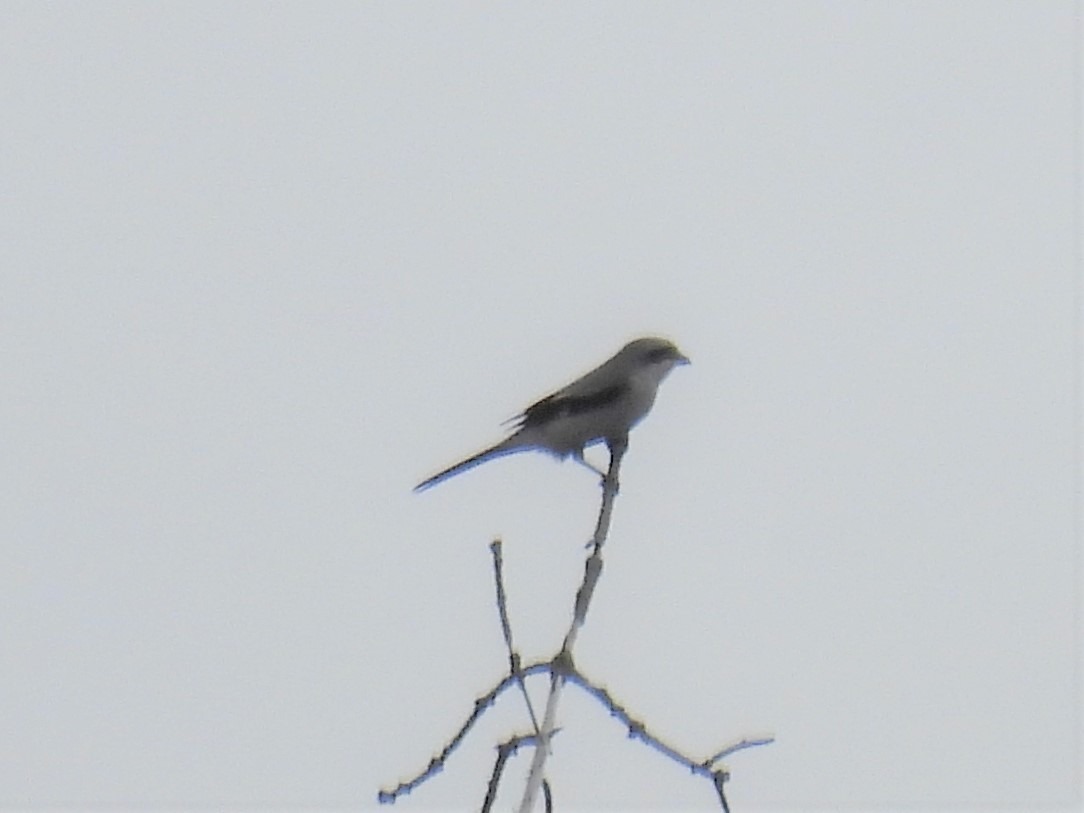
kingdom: Animalia
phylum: Chordata
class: Aves
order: Passeriformes
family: Laniidae
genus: Lanius
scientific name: Lanius excubitor
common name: Stor tornskade
